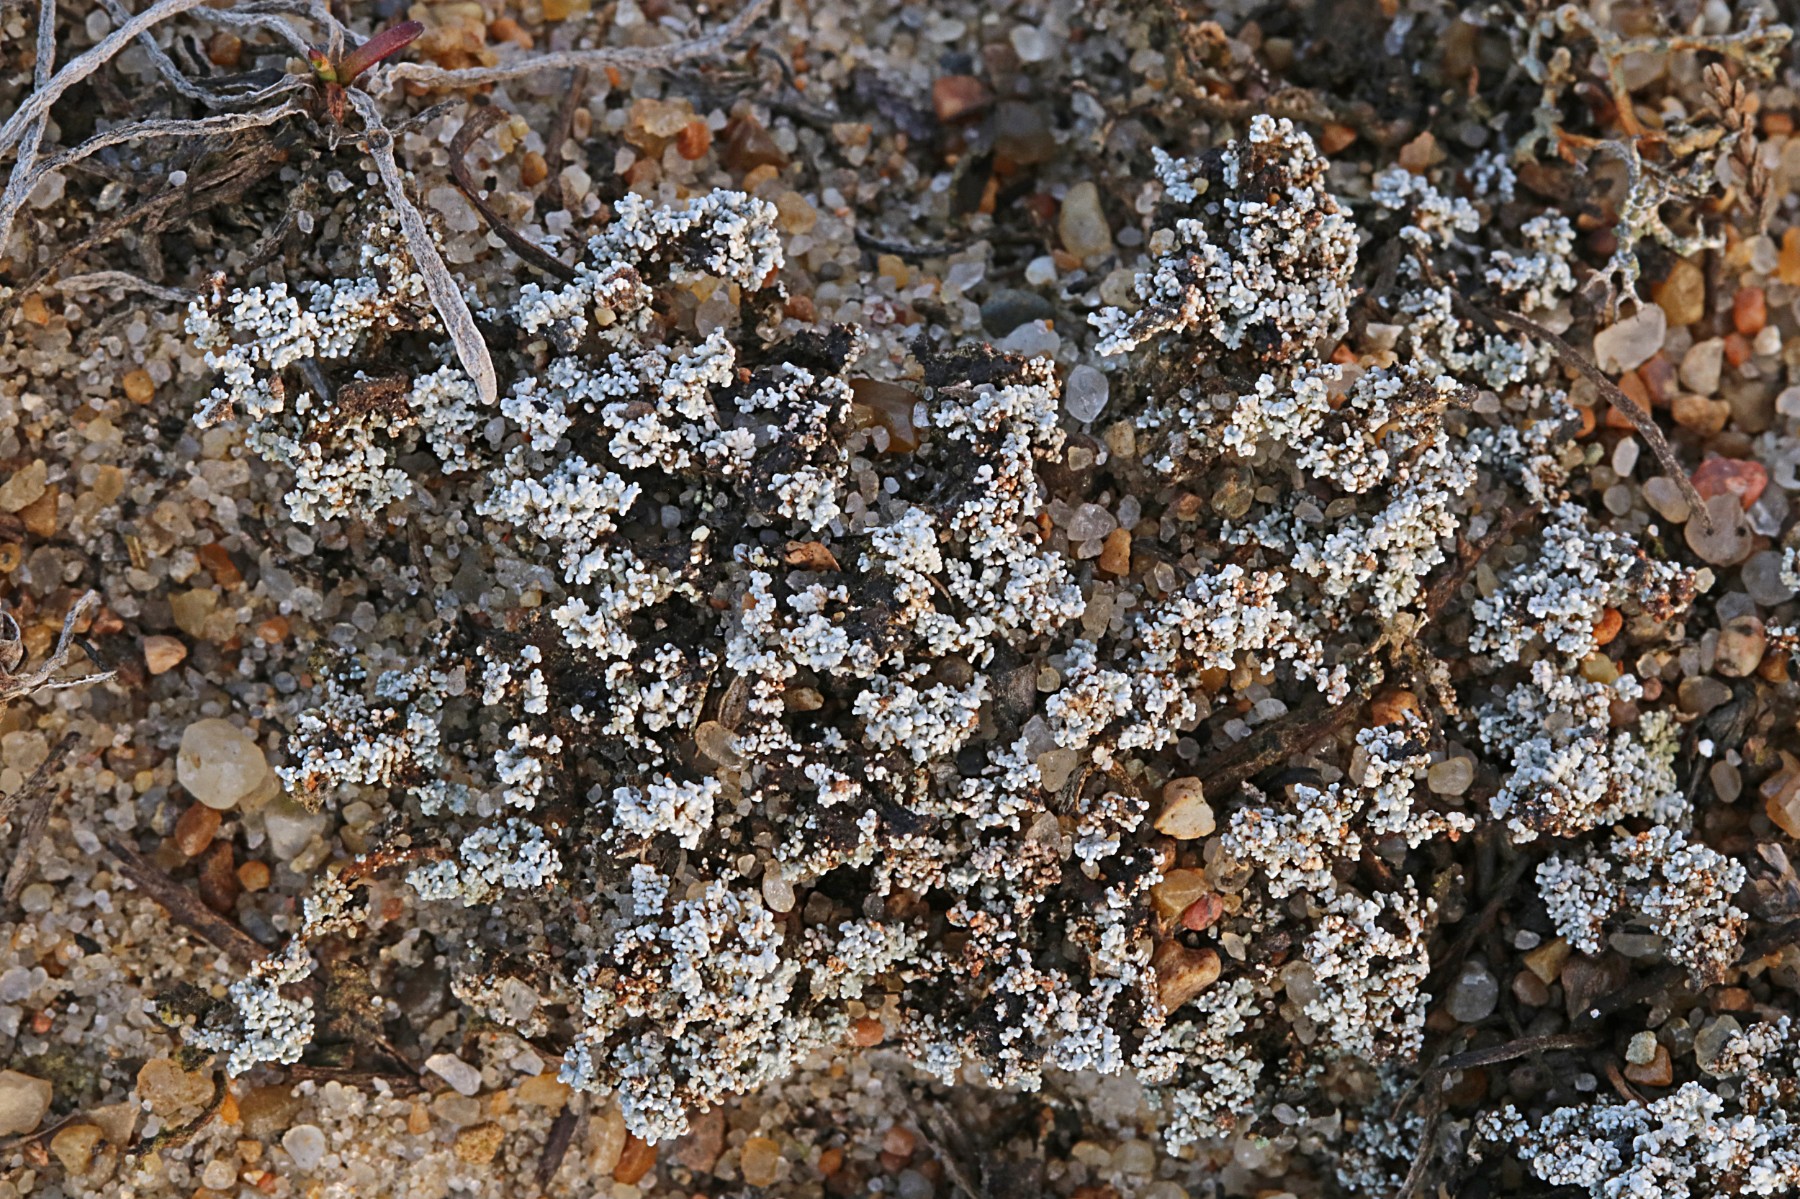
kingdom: Fungi
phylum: Ascomycota
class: Lecanoromycetes
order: Lecanorales
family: Stereocaulaceae
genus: Stereocaulon
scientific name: Stereocaulon condensatum
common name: lav korallav
